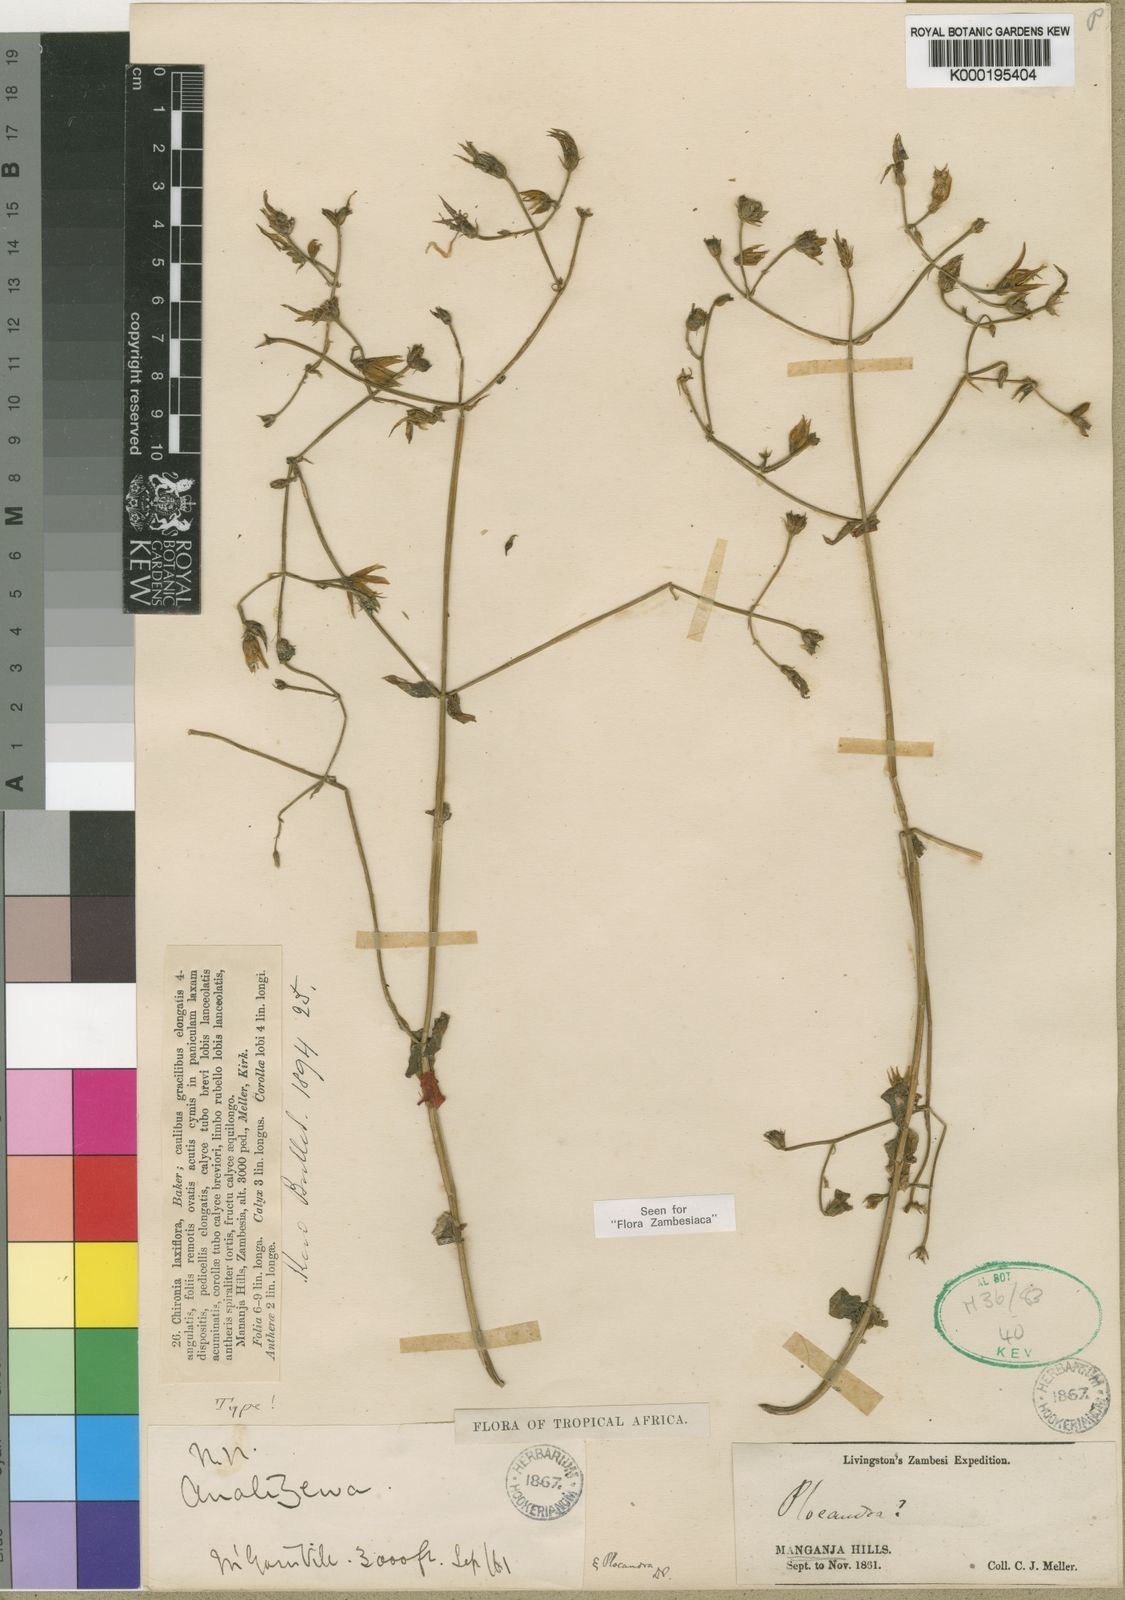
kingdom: Plantae
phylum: Tracheophyta
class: Magnoliopsida
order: Gentianales
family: Gentianaceae
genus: Chironia
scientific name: Chironia laxiflora
